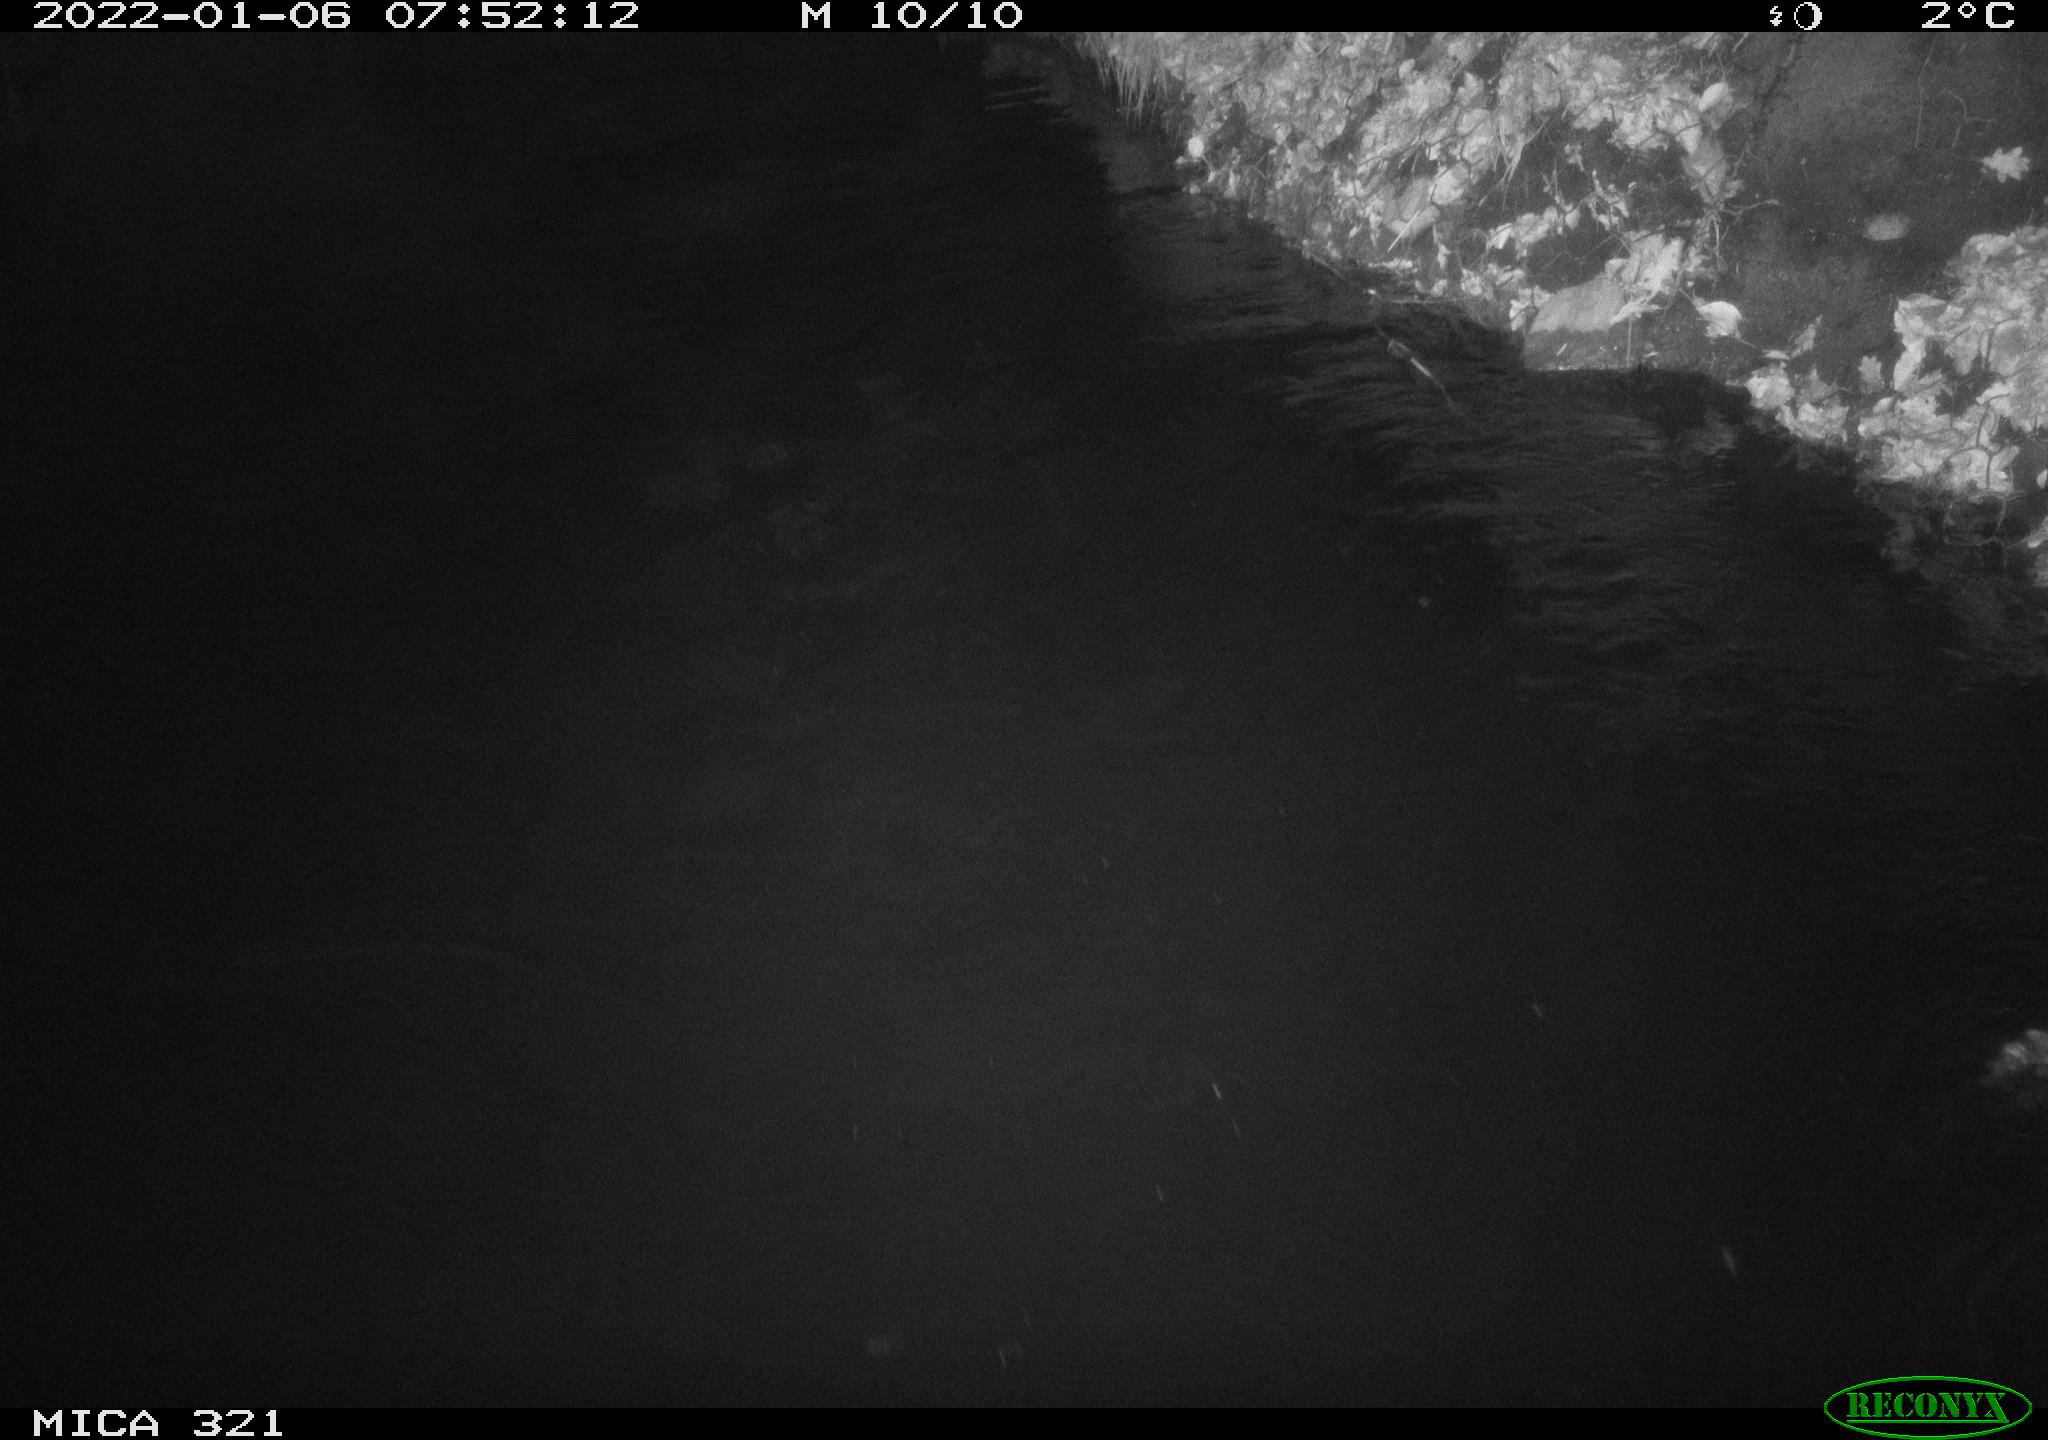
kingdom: Animalia
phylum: Chordata
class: Aves
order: Anseriformes
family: Anatidae
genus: Anas
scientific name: Anas
